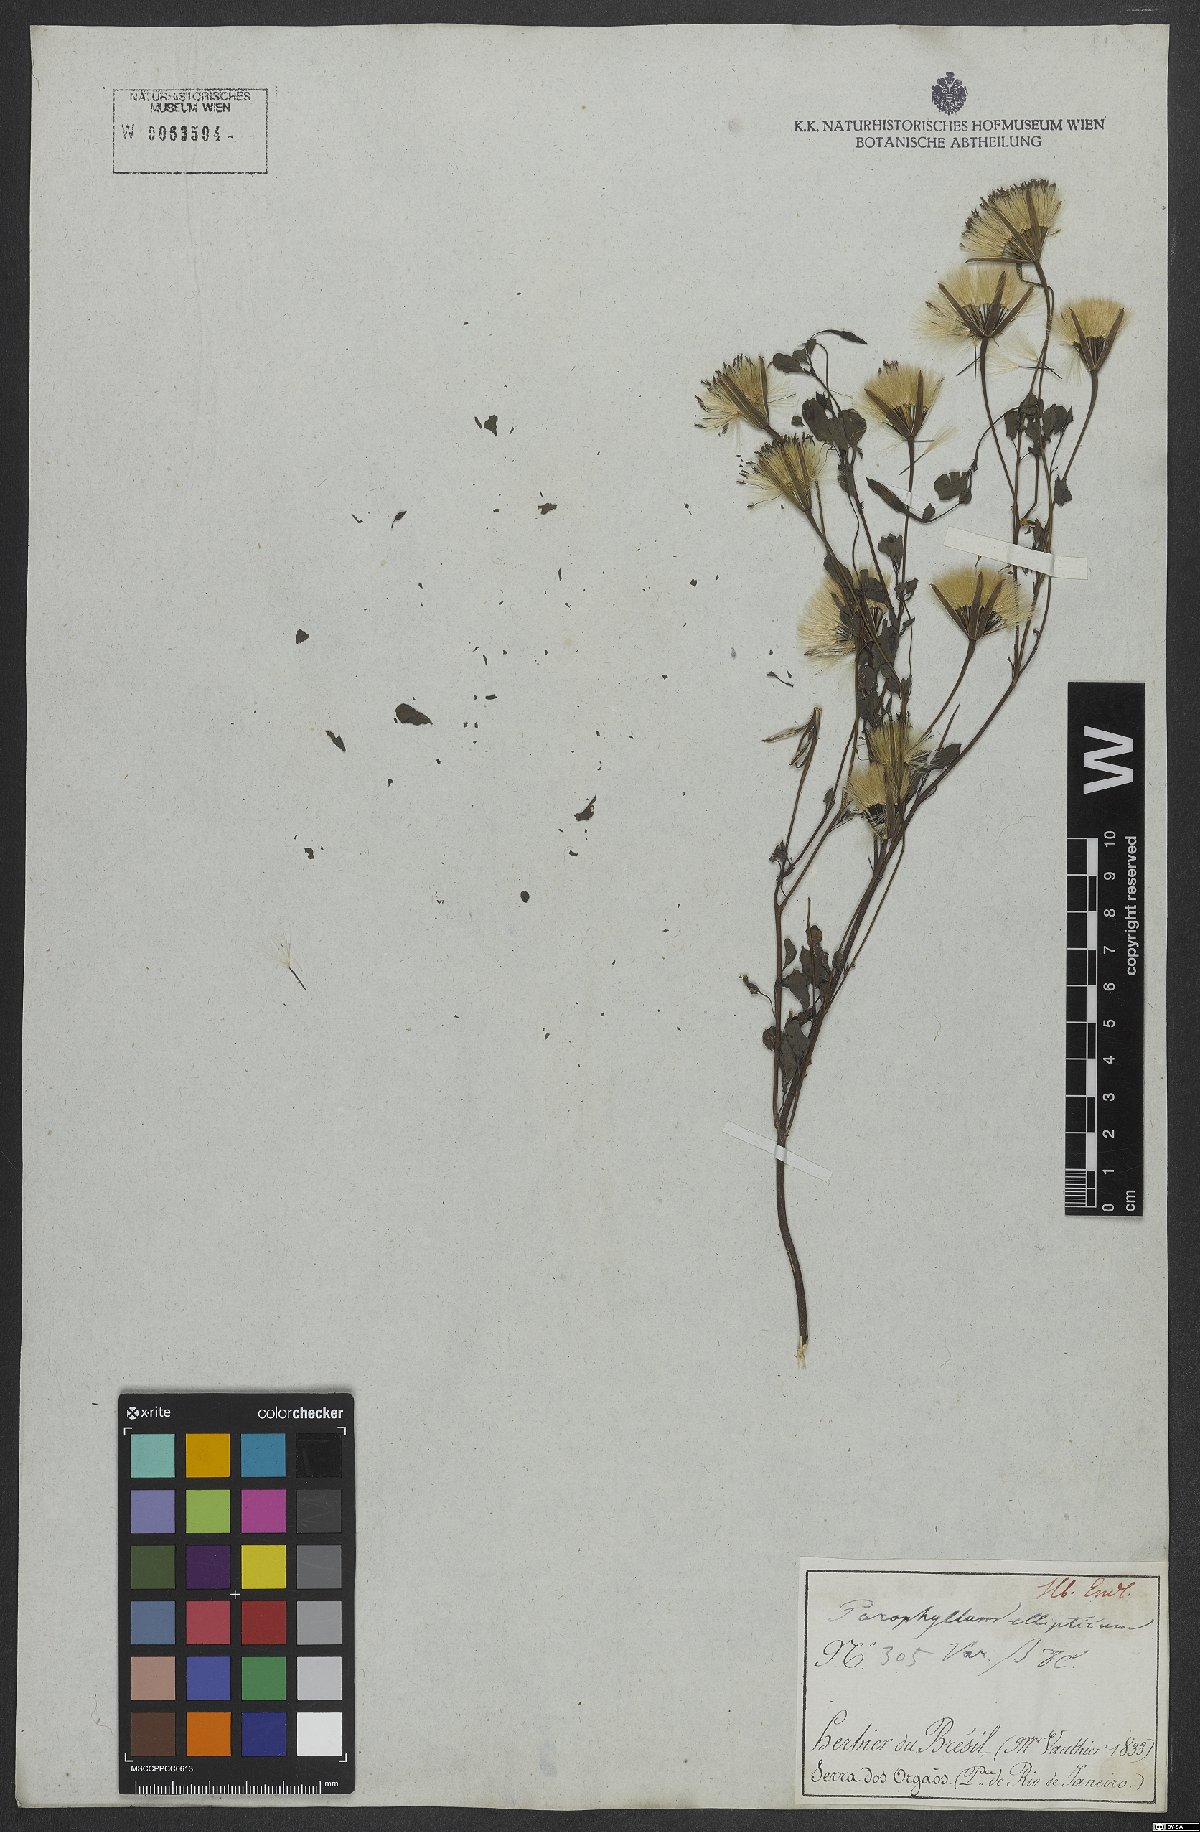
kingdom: Plantae
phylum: Tracheophyta
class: Magnoliopsida
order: Asterales
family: Asteraceae
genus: Porophyllum
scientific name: Porophyllum ruderale
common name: Yerba porosa
